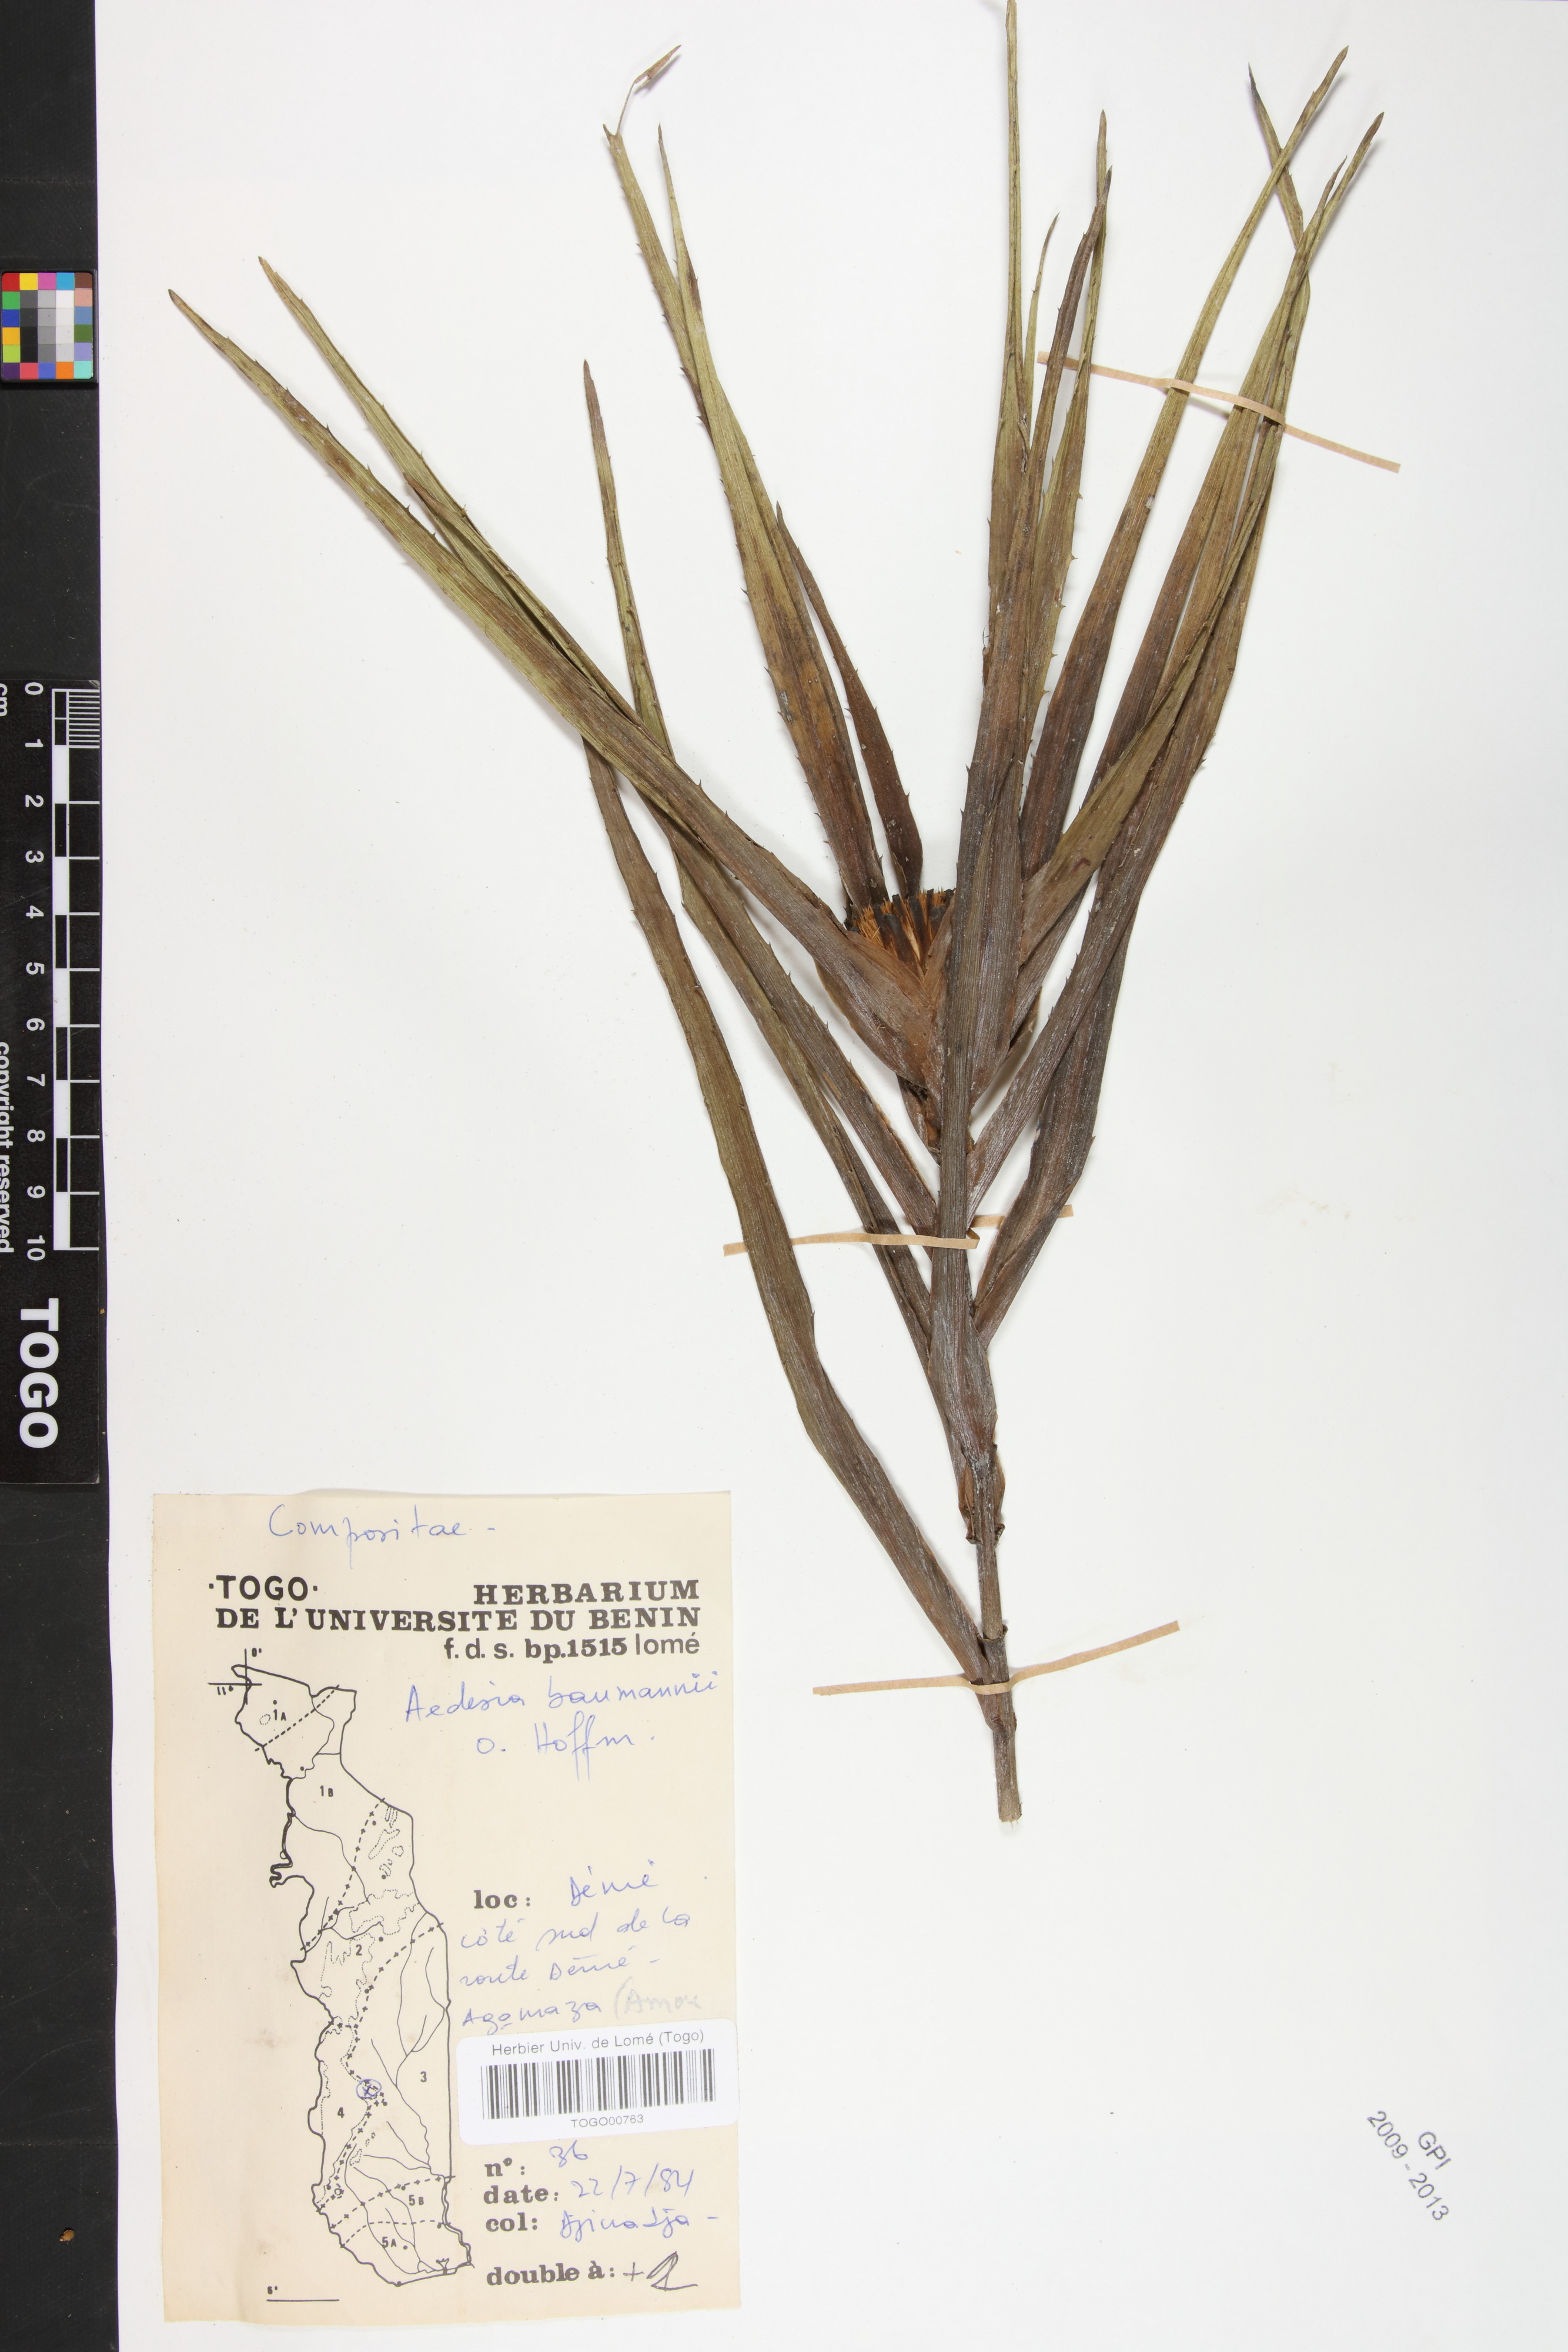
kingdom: Plantae
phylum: Tracheophyta
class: Magnoliopsida
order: Asterales
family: Asteraceae
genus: Aedesia
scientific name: Aedesia glabra
